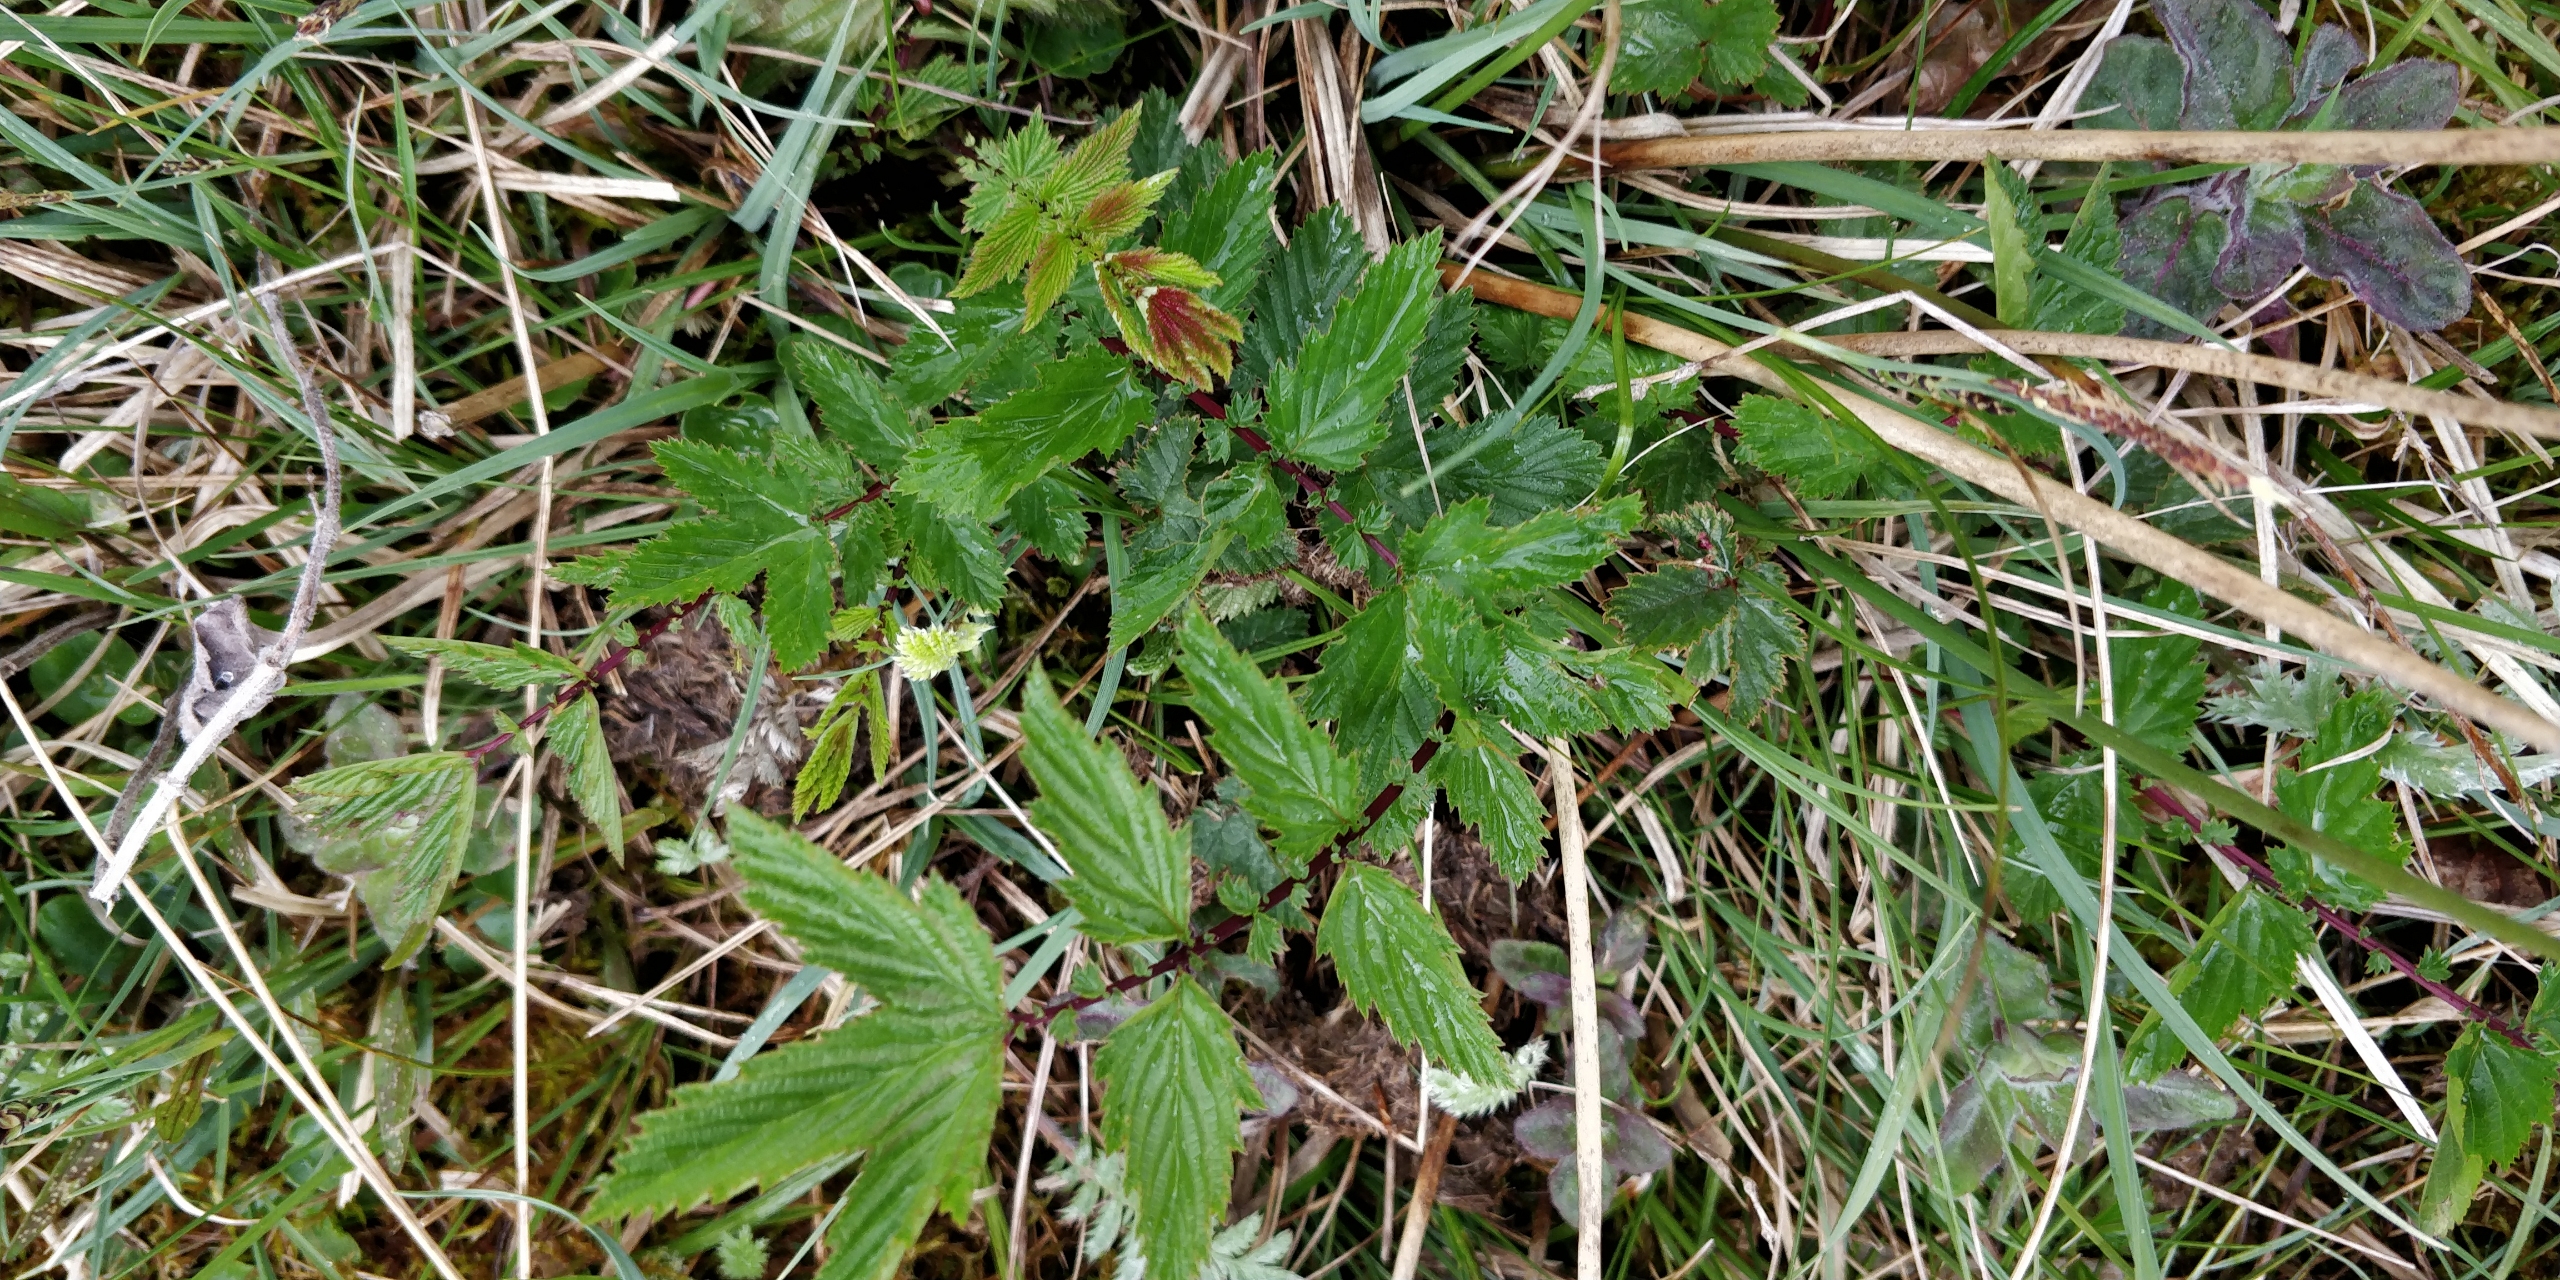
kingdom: Plantae
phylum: Tracheophyta
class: Magnoliopsida
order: Rosales
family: Rosaceae
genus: Filipendula
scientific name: Filipendula ulmaria
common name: Almindelig mjødurt
